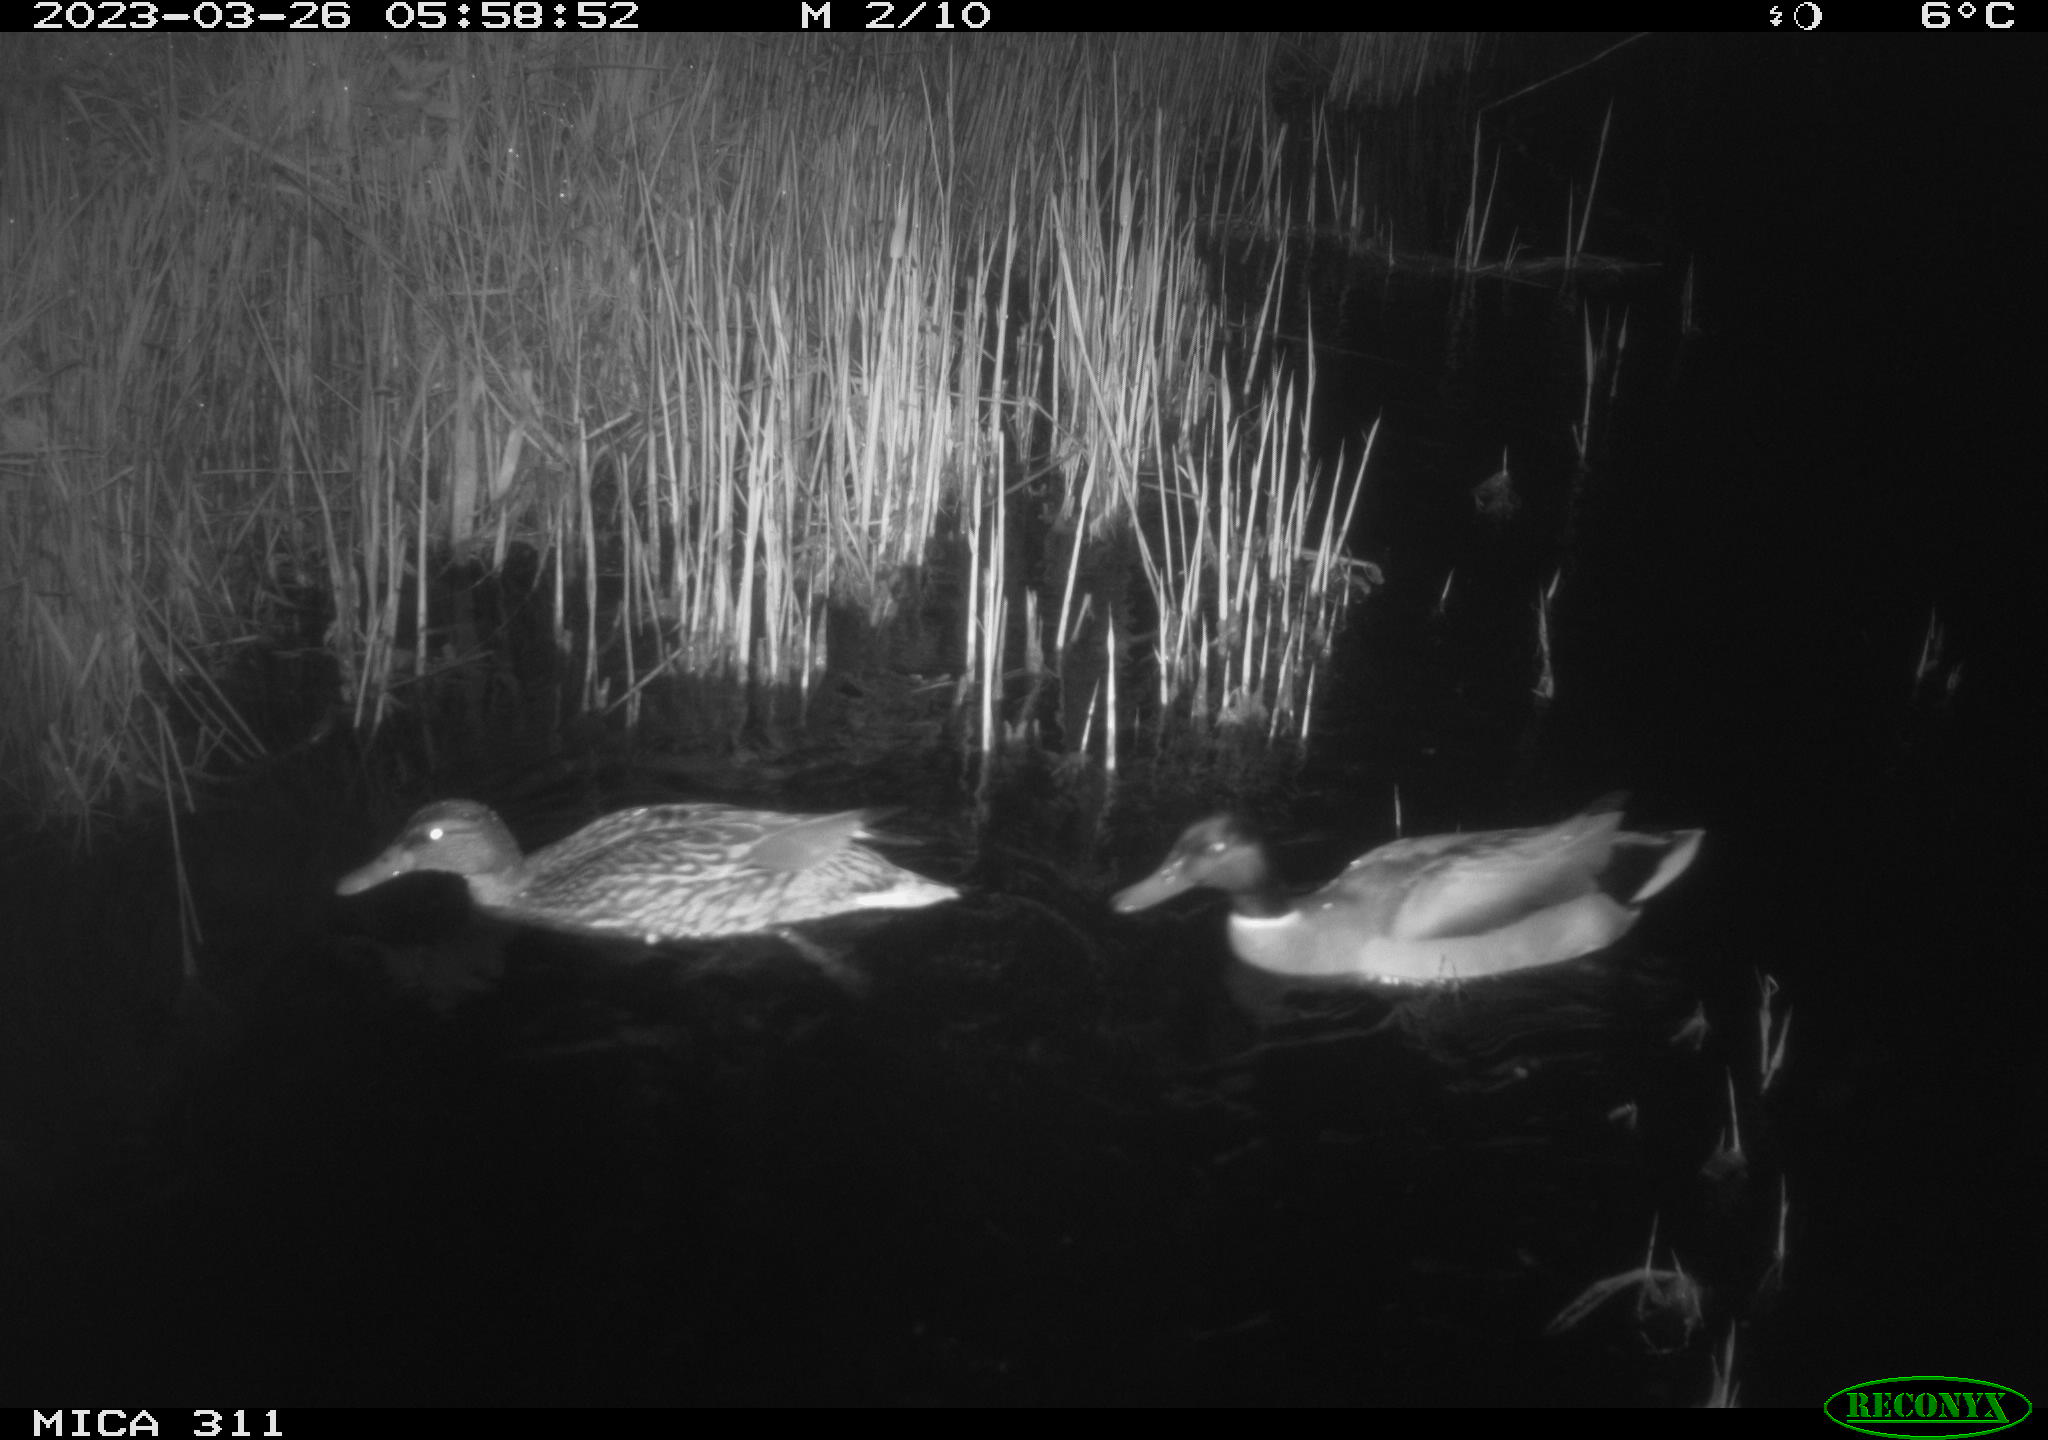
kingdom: Animalia
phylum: Chordata
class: Aves
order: Anseriformes
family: Anatidae
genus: Anas
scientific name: Anas
